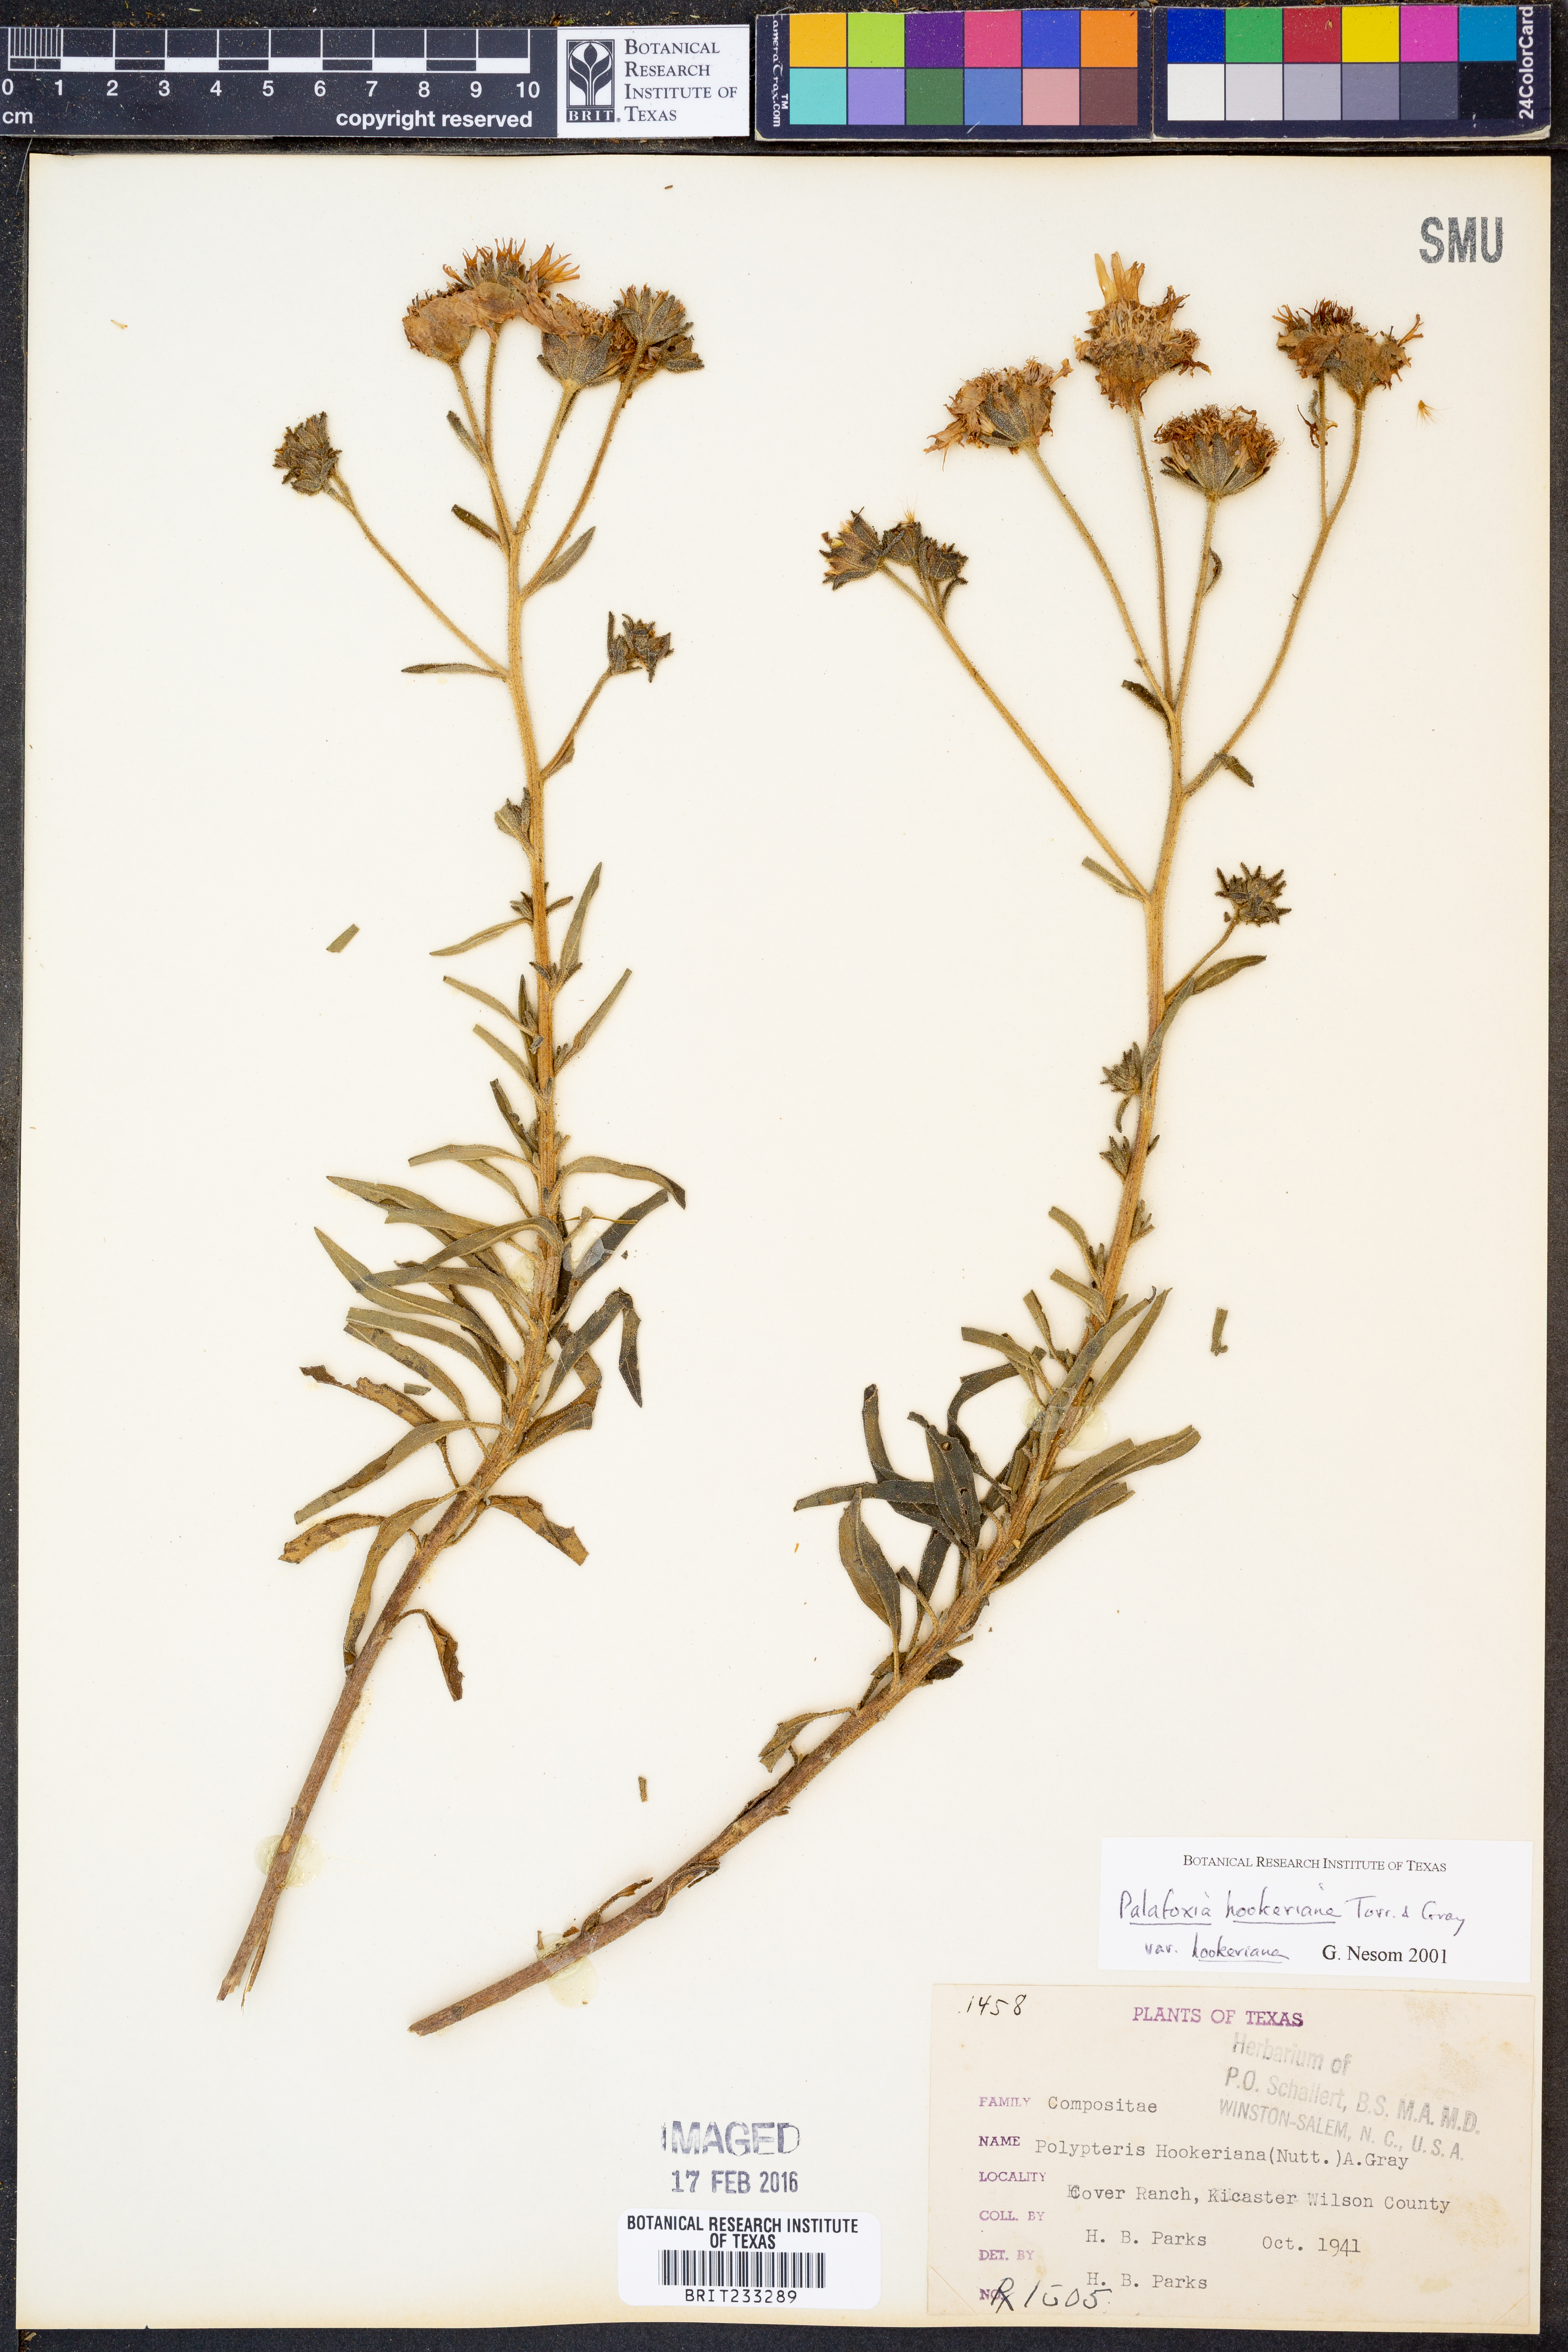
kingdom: Plantae
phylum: Tracheophyta
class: Magnoliopsida
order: Asterales
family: Asteraceae
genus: Palafoxia
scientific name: Palafoxia hookeriana
